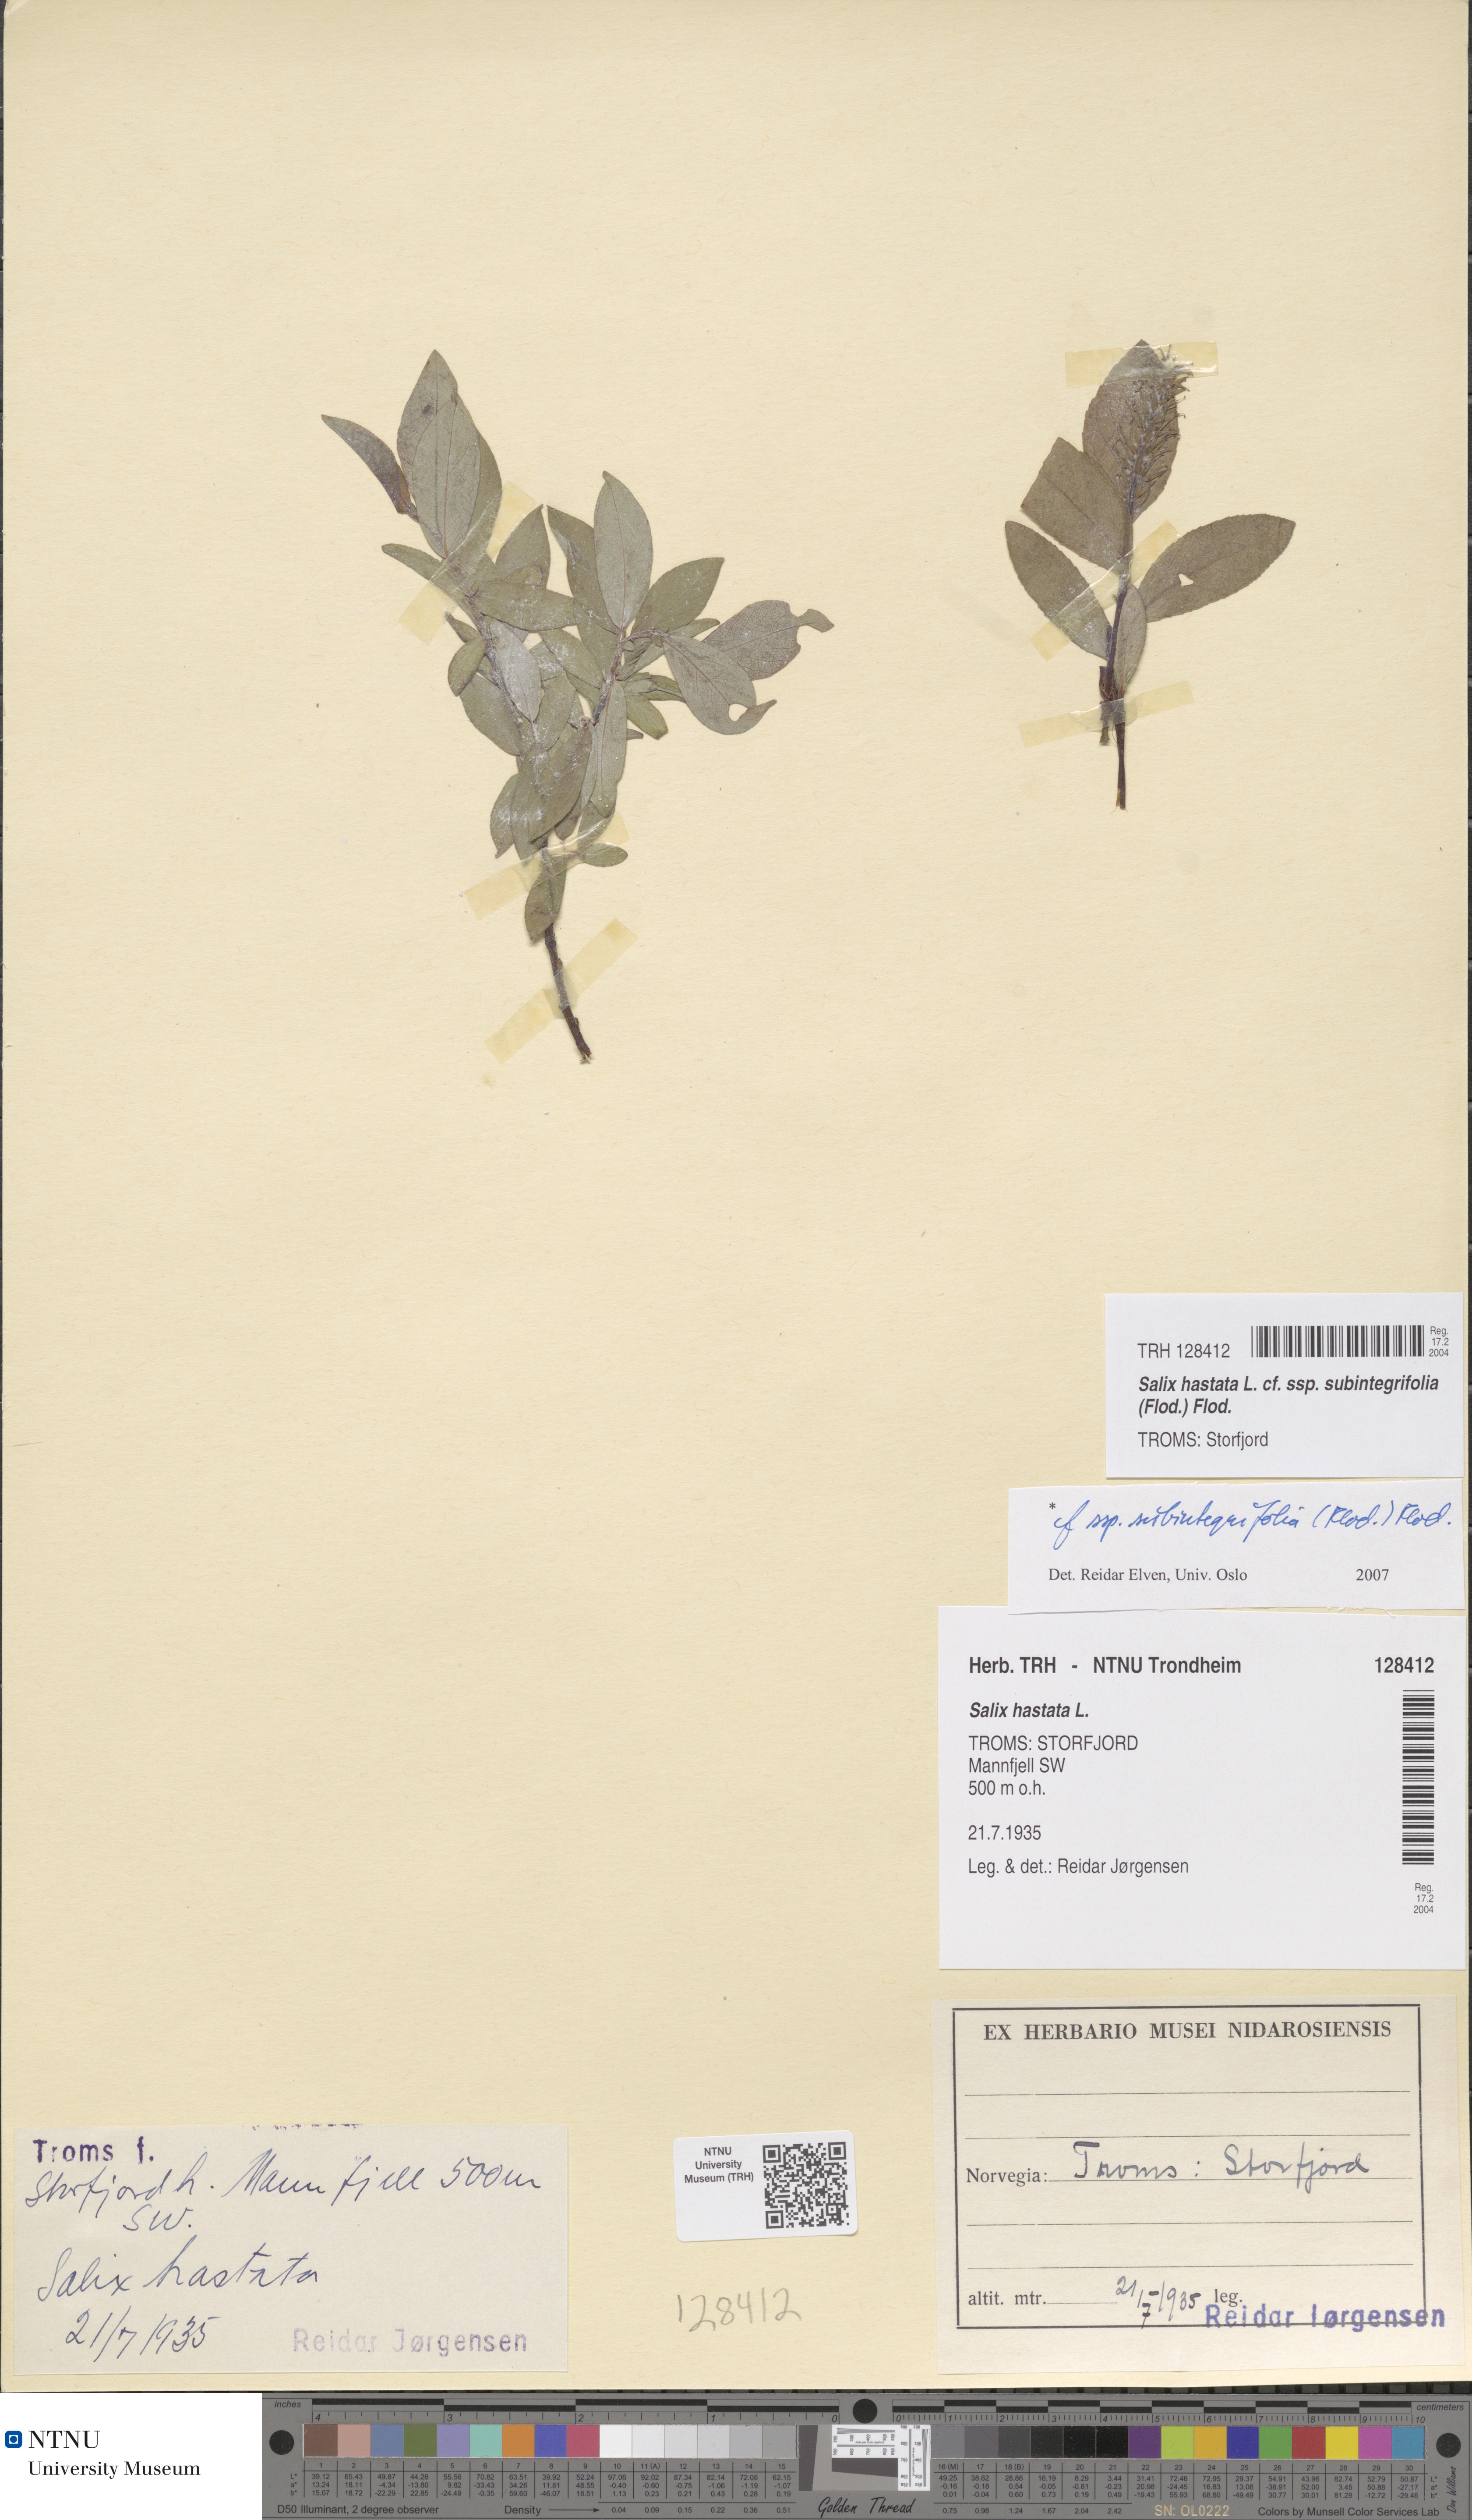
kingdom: Plantae
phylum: Tracheophyta
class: Magnoliopsida
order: Malpighiales
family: Salicaceae
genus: Salix
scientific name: Salix hastata
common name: Halberd willow
